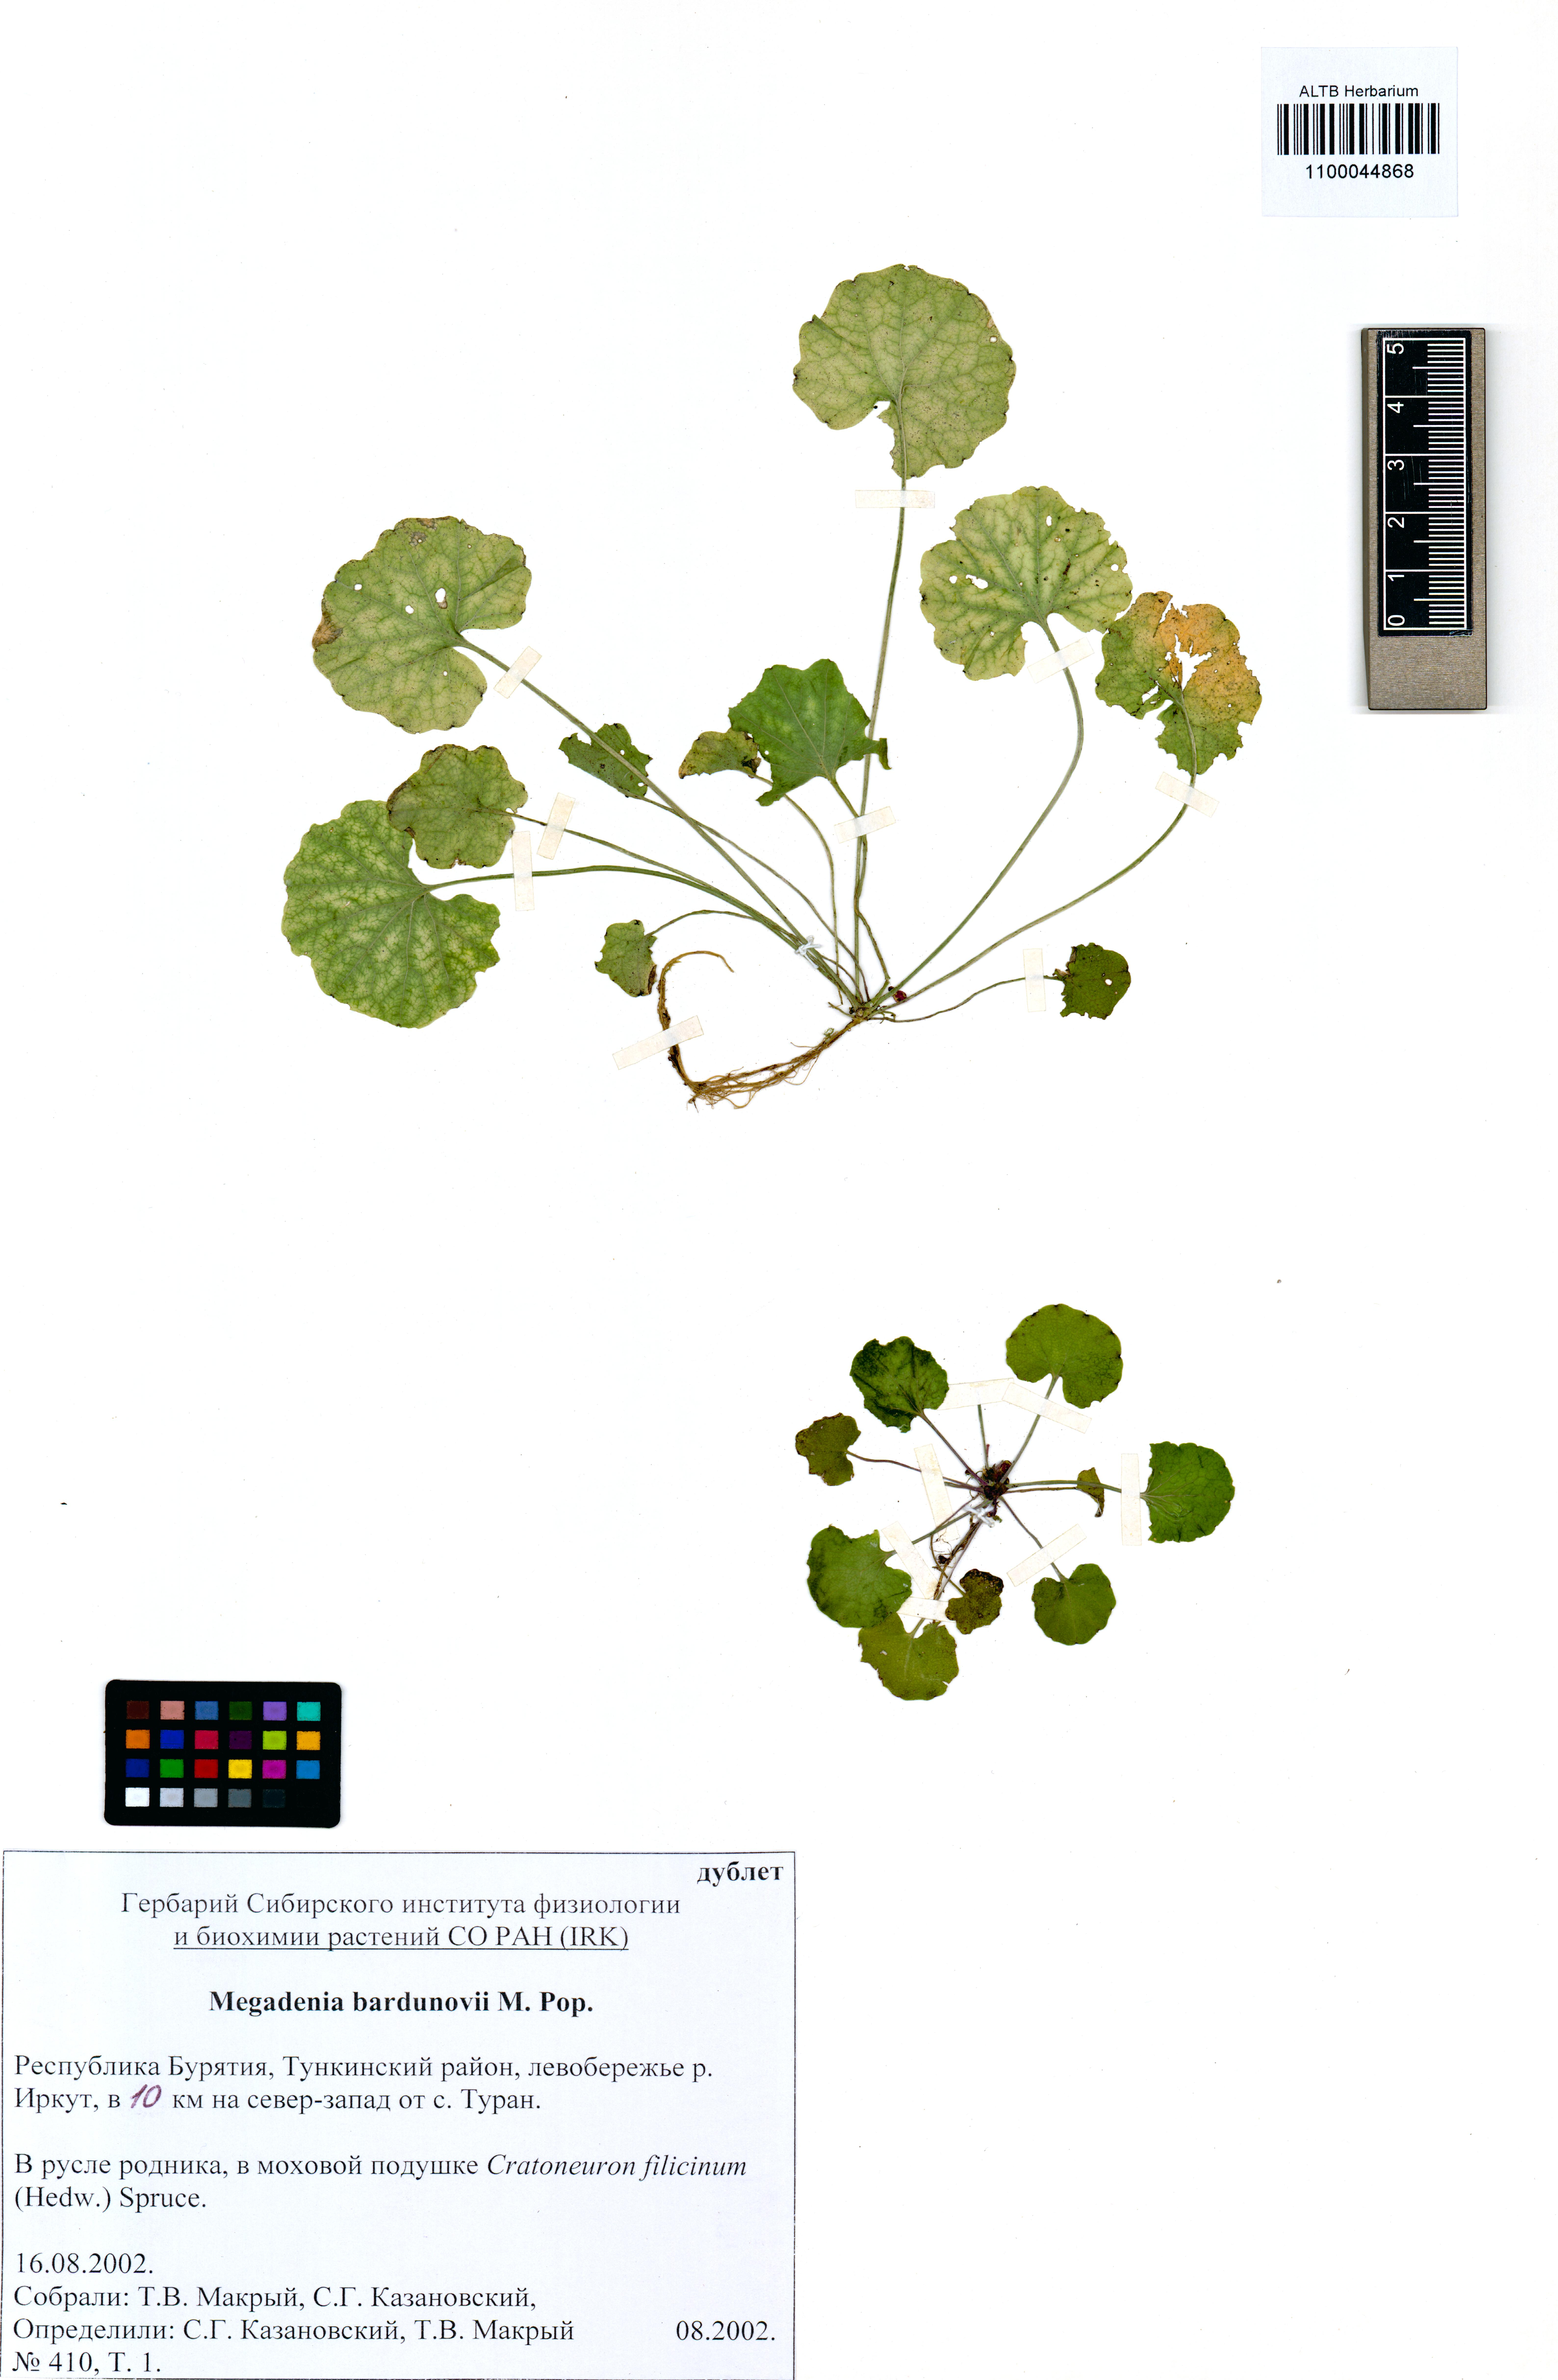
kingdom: Plantae
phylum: Tracheophyta
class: Magnoliopsida
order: Brassicales
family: Brassicaceae
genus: Megadenia
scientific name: Megadenia pygmaea
